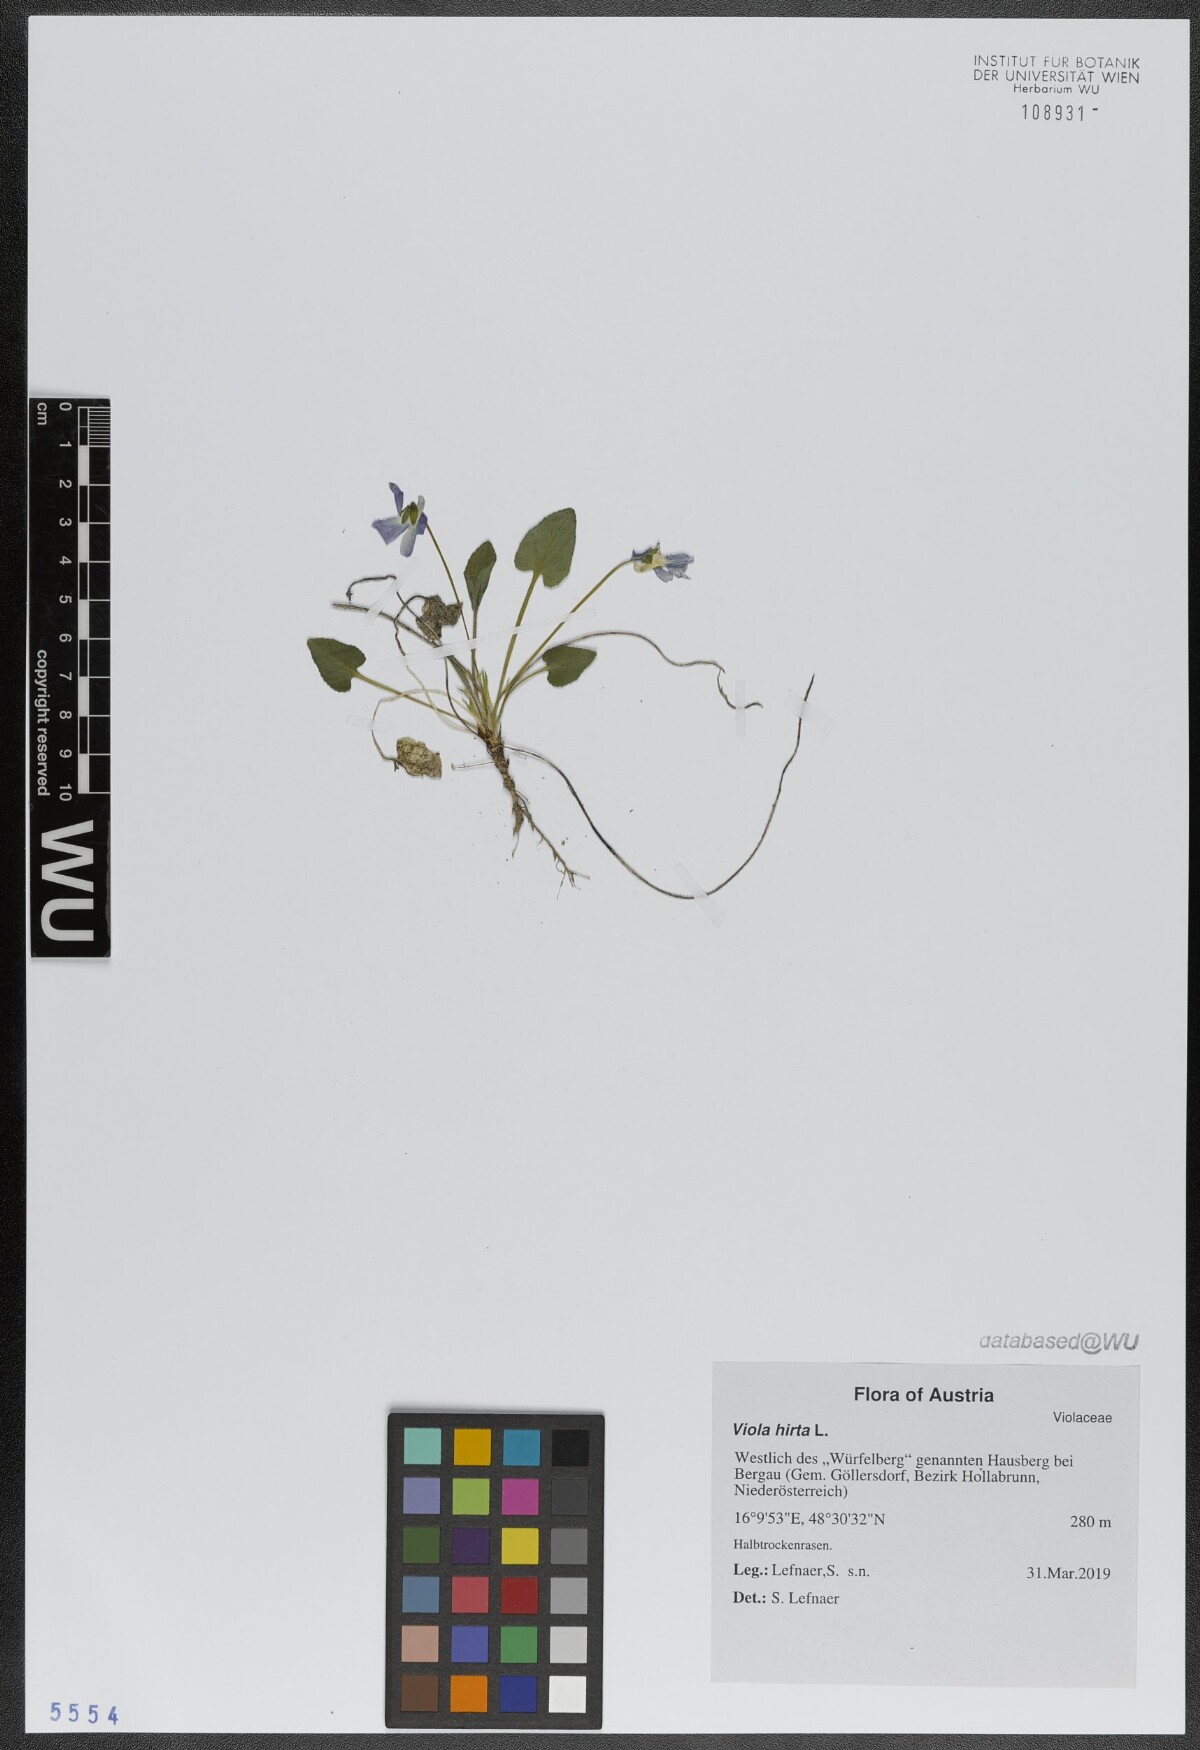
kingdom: Plantae
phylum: Tracheophyta
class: Magnoliopsida
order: Malpighiales
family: Violaceae
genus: Viola
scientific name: Viola hirta
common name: Hairy violet
